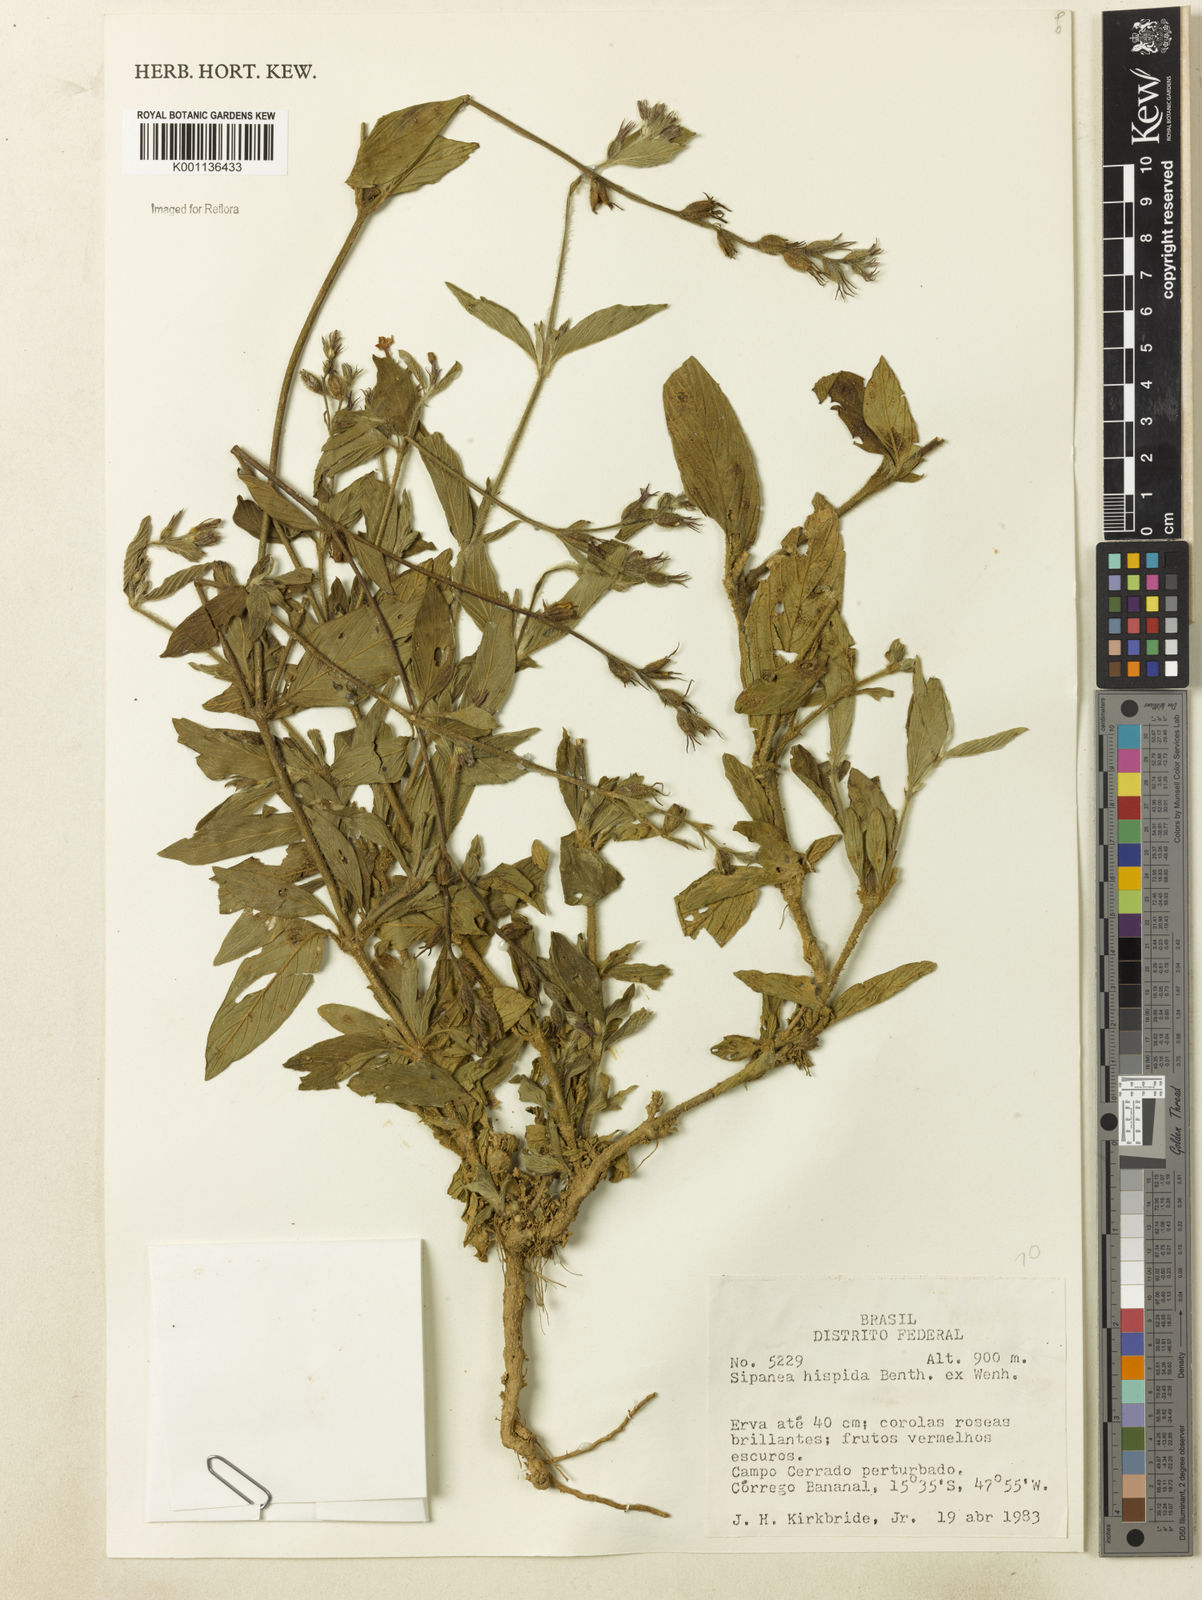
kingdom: Plantae
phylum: Tracheophyta
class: Magnoliopsida
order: Gentianales
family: Rubiaceae
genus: Sipanea
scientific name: Sipanea hispida
